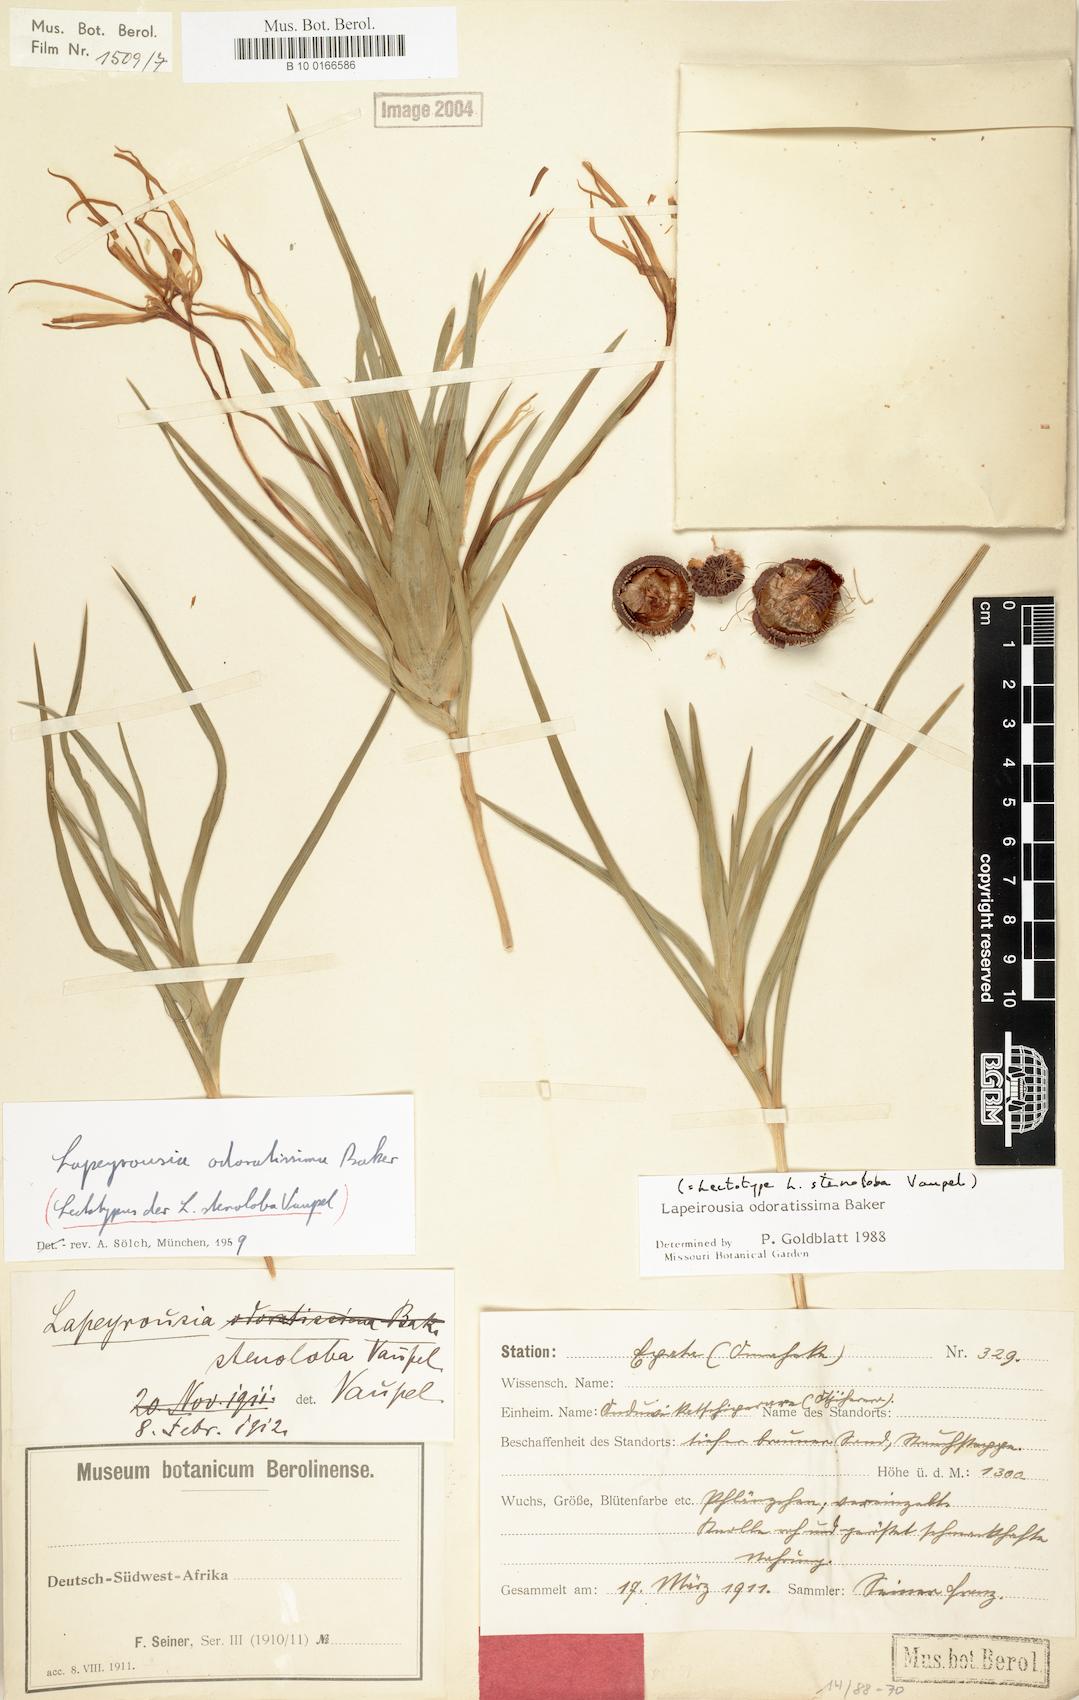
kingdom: Plantae
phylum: Tracheophyta
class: Liliopsida
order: Asparagales
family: Iridaceae
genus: Lapeirousia
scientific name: Lapeirousia odoratissima
